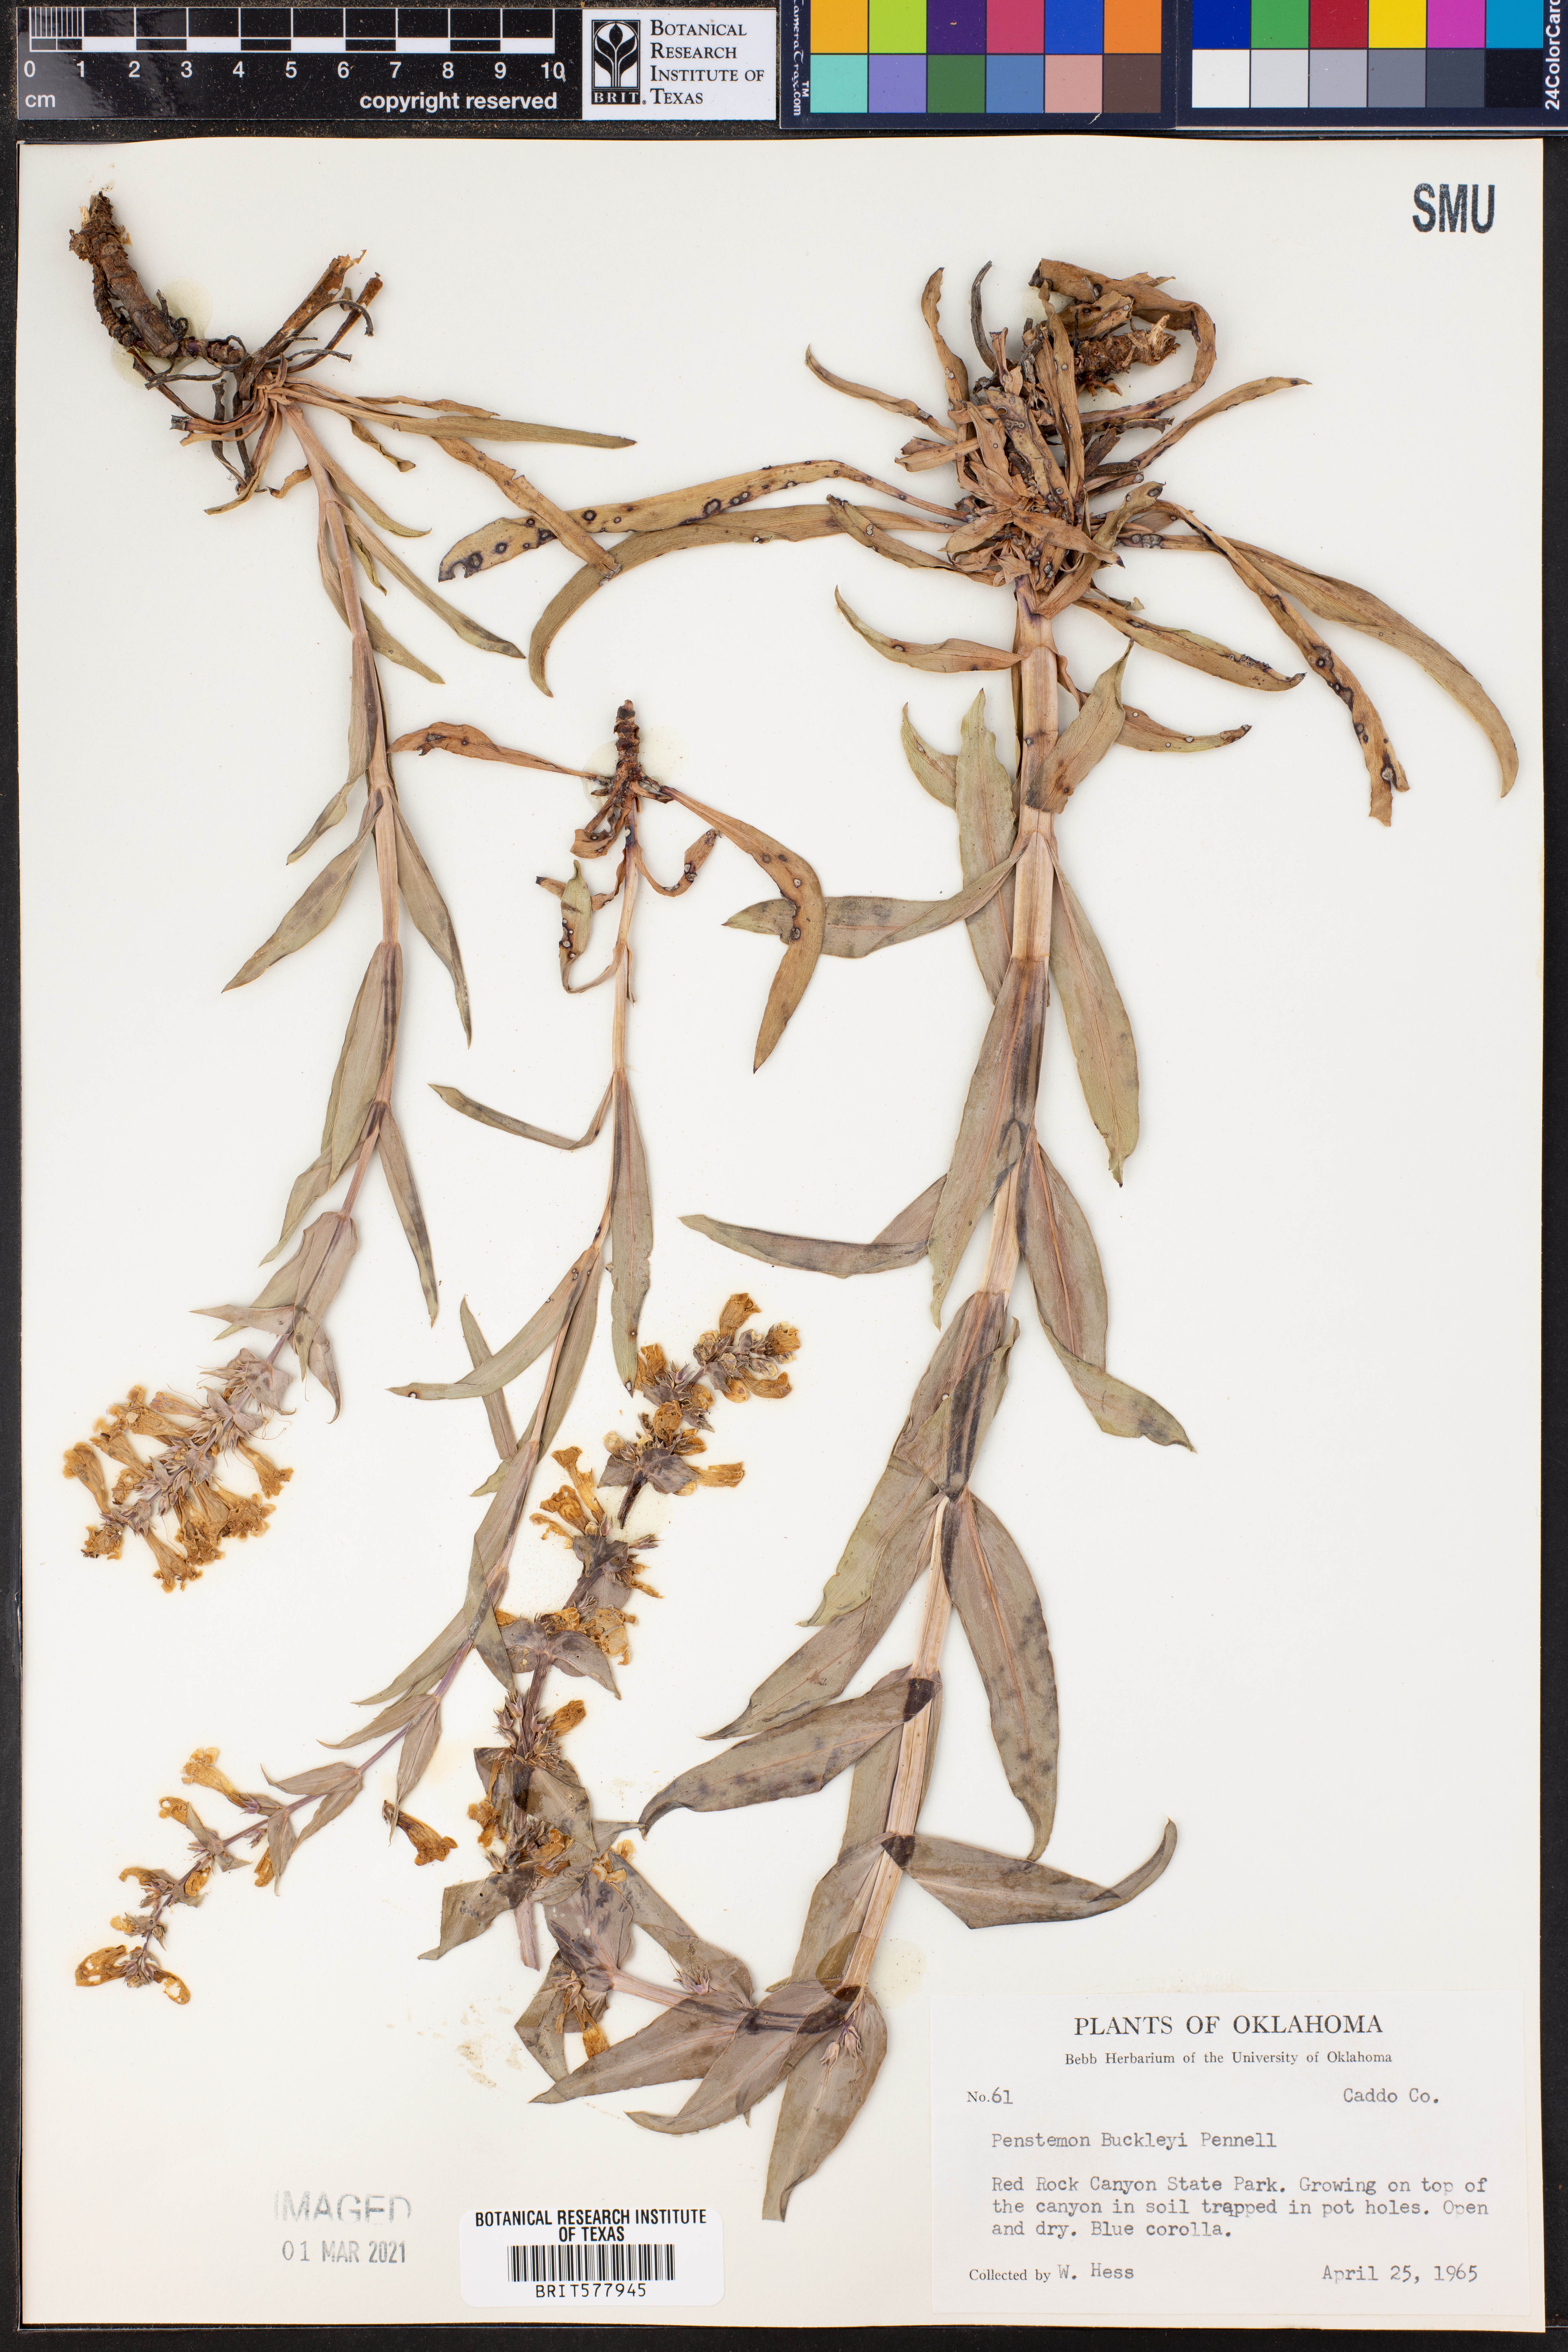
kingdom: Plantae
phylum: Tracheophyta
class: Magnoliopsida
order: Lamiales
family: Plantaginaceae
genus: Penstemon
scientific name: Penstemon buckleyi
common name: Buckley's penstemon
